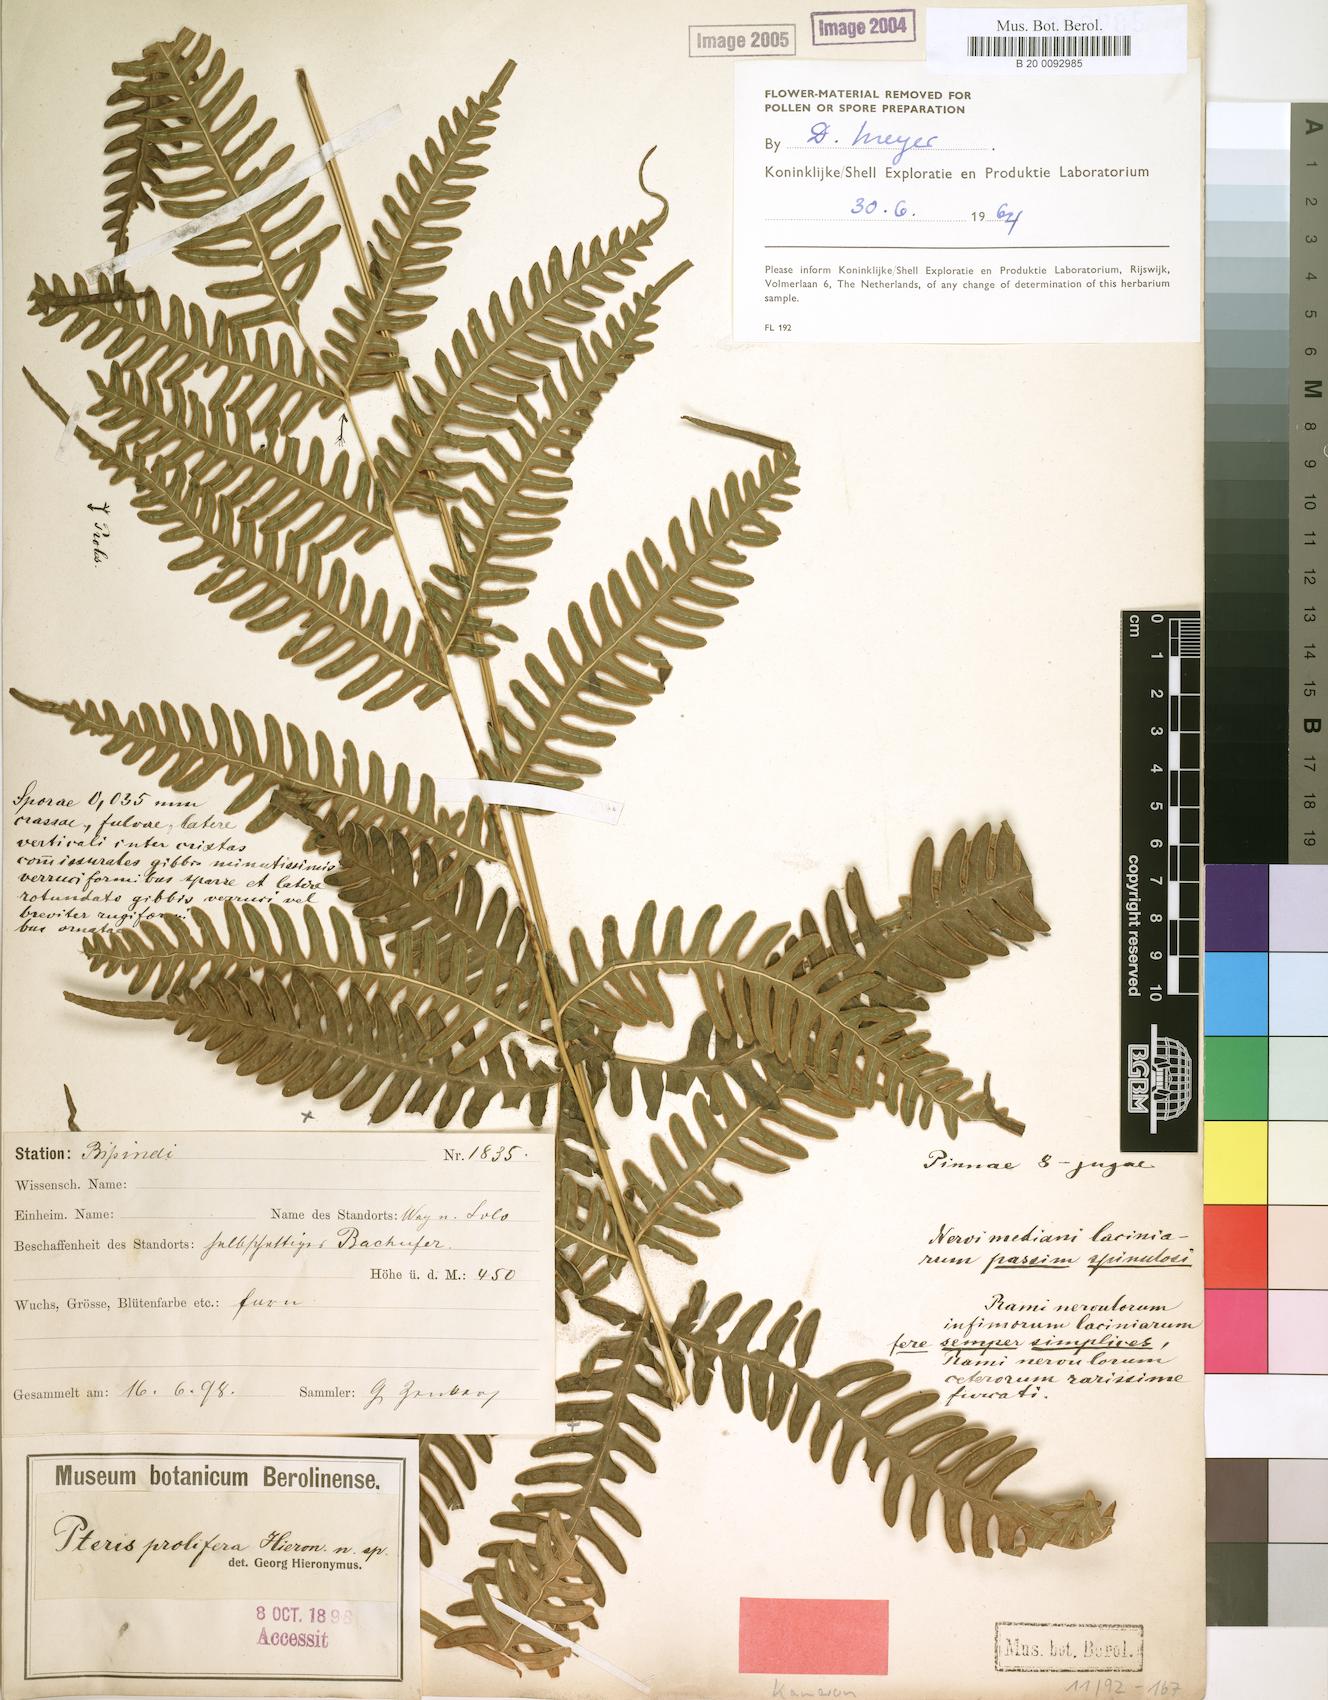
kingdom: Plantae
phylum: Tracheophyta
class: Polypodiopsida
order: Polypodiales
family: Pteridaceae
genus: Pteris
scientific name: Pteris preussii
